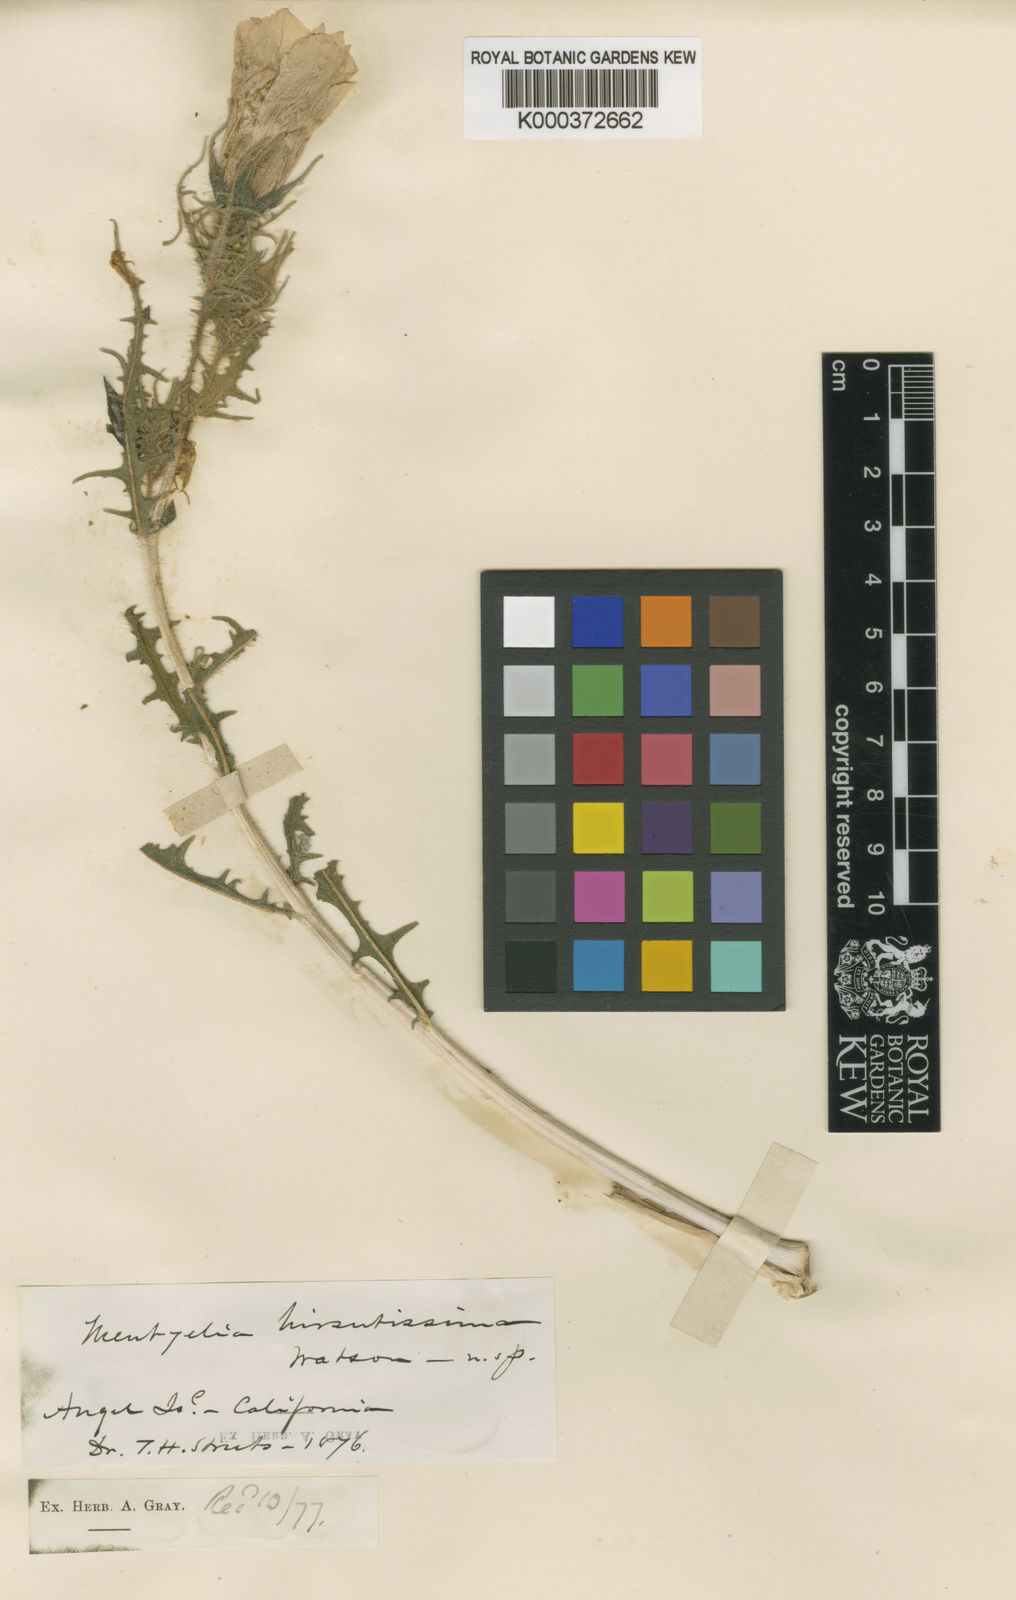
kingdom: Plantae
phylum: Tracheophyta
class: Magnoliopsida
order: Cornales
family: Loasaceae
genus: Mentzelia
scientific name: Mentzelia hirsutissima
